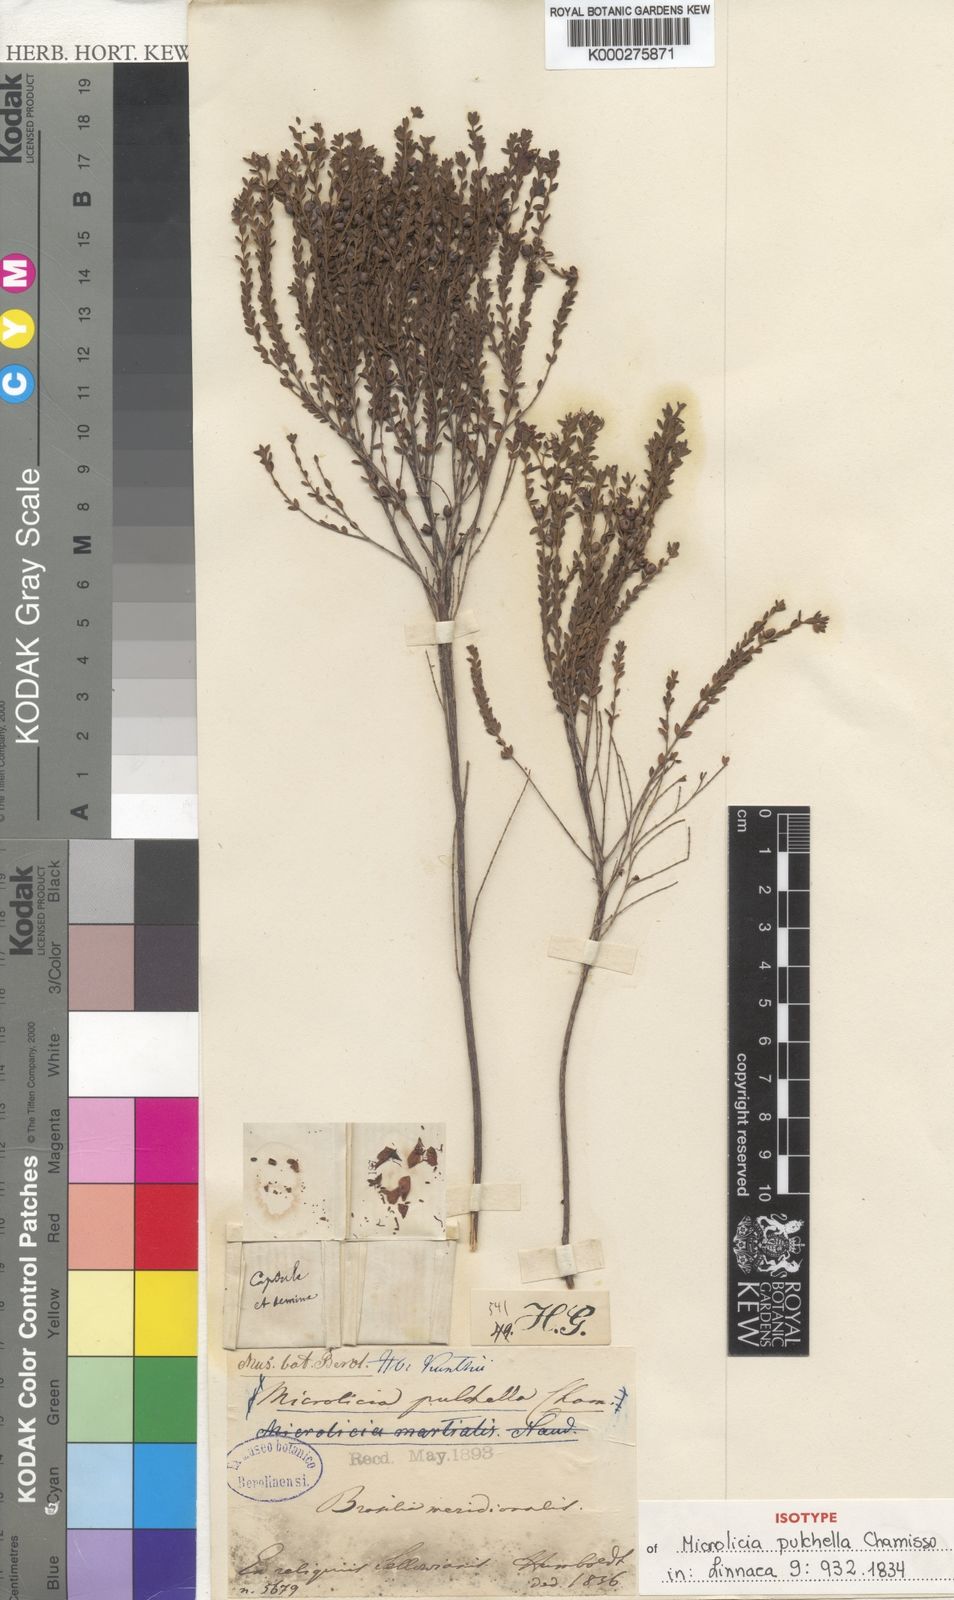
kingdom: Plantae
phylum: Tracheophyta
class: Magnoliopsida
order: Myrtales
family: Melastomataceae
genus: Microlicia
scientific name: Microlicia isophylla
